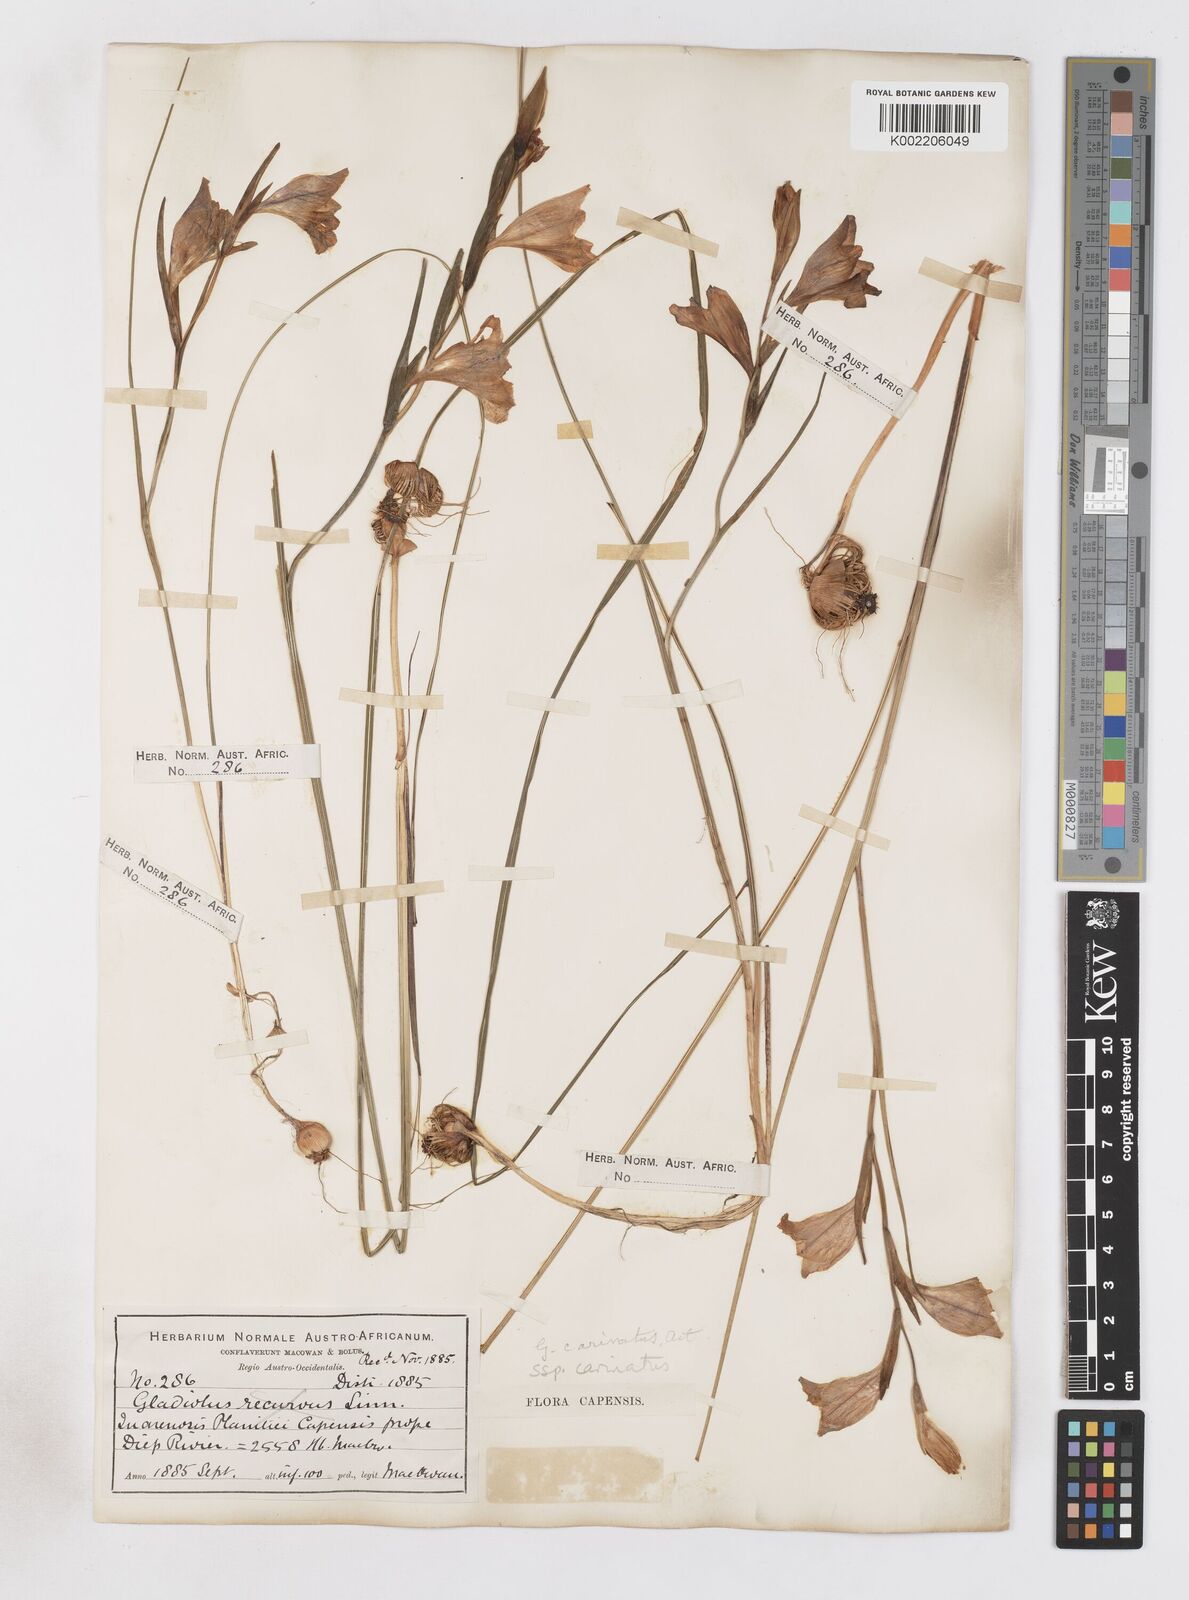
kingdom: Plantae
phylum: Tracheophyta
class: Liliopsida
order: Asparagales
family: Iridaceae
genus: Gladiolus
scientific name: Gladiolus carinatus
